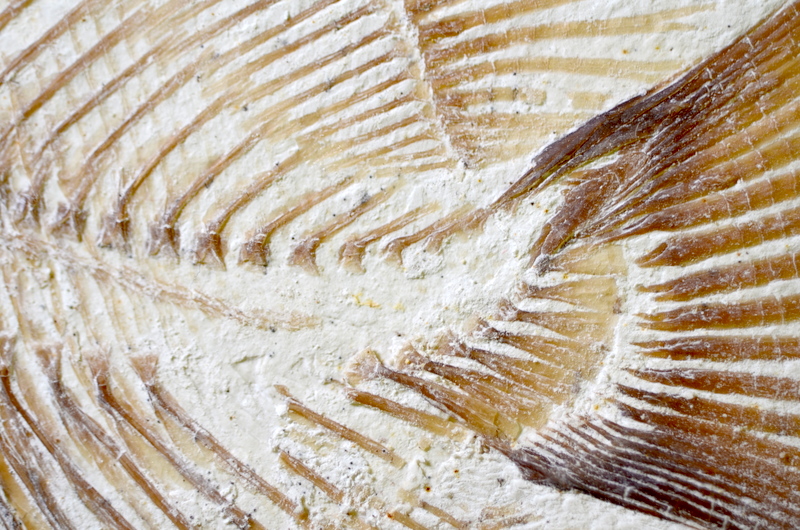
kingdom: Animalia
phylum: Chordata
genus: Piranhamesodon
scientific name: Piranhamesodon pinnatomus
